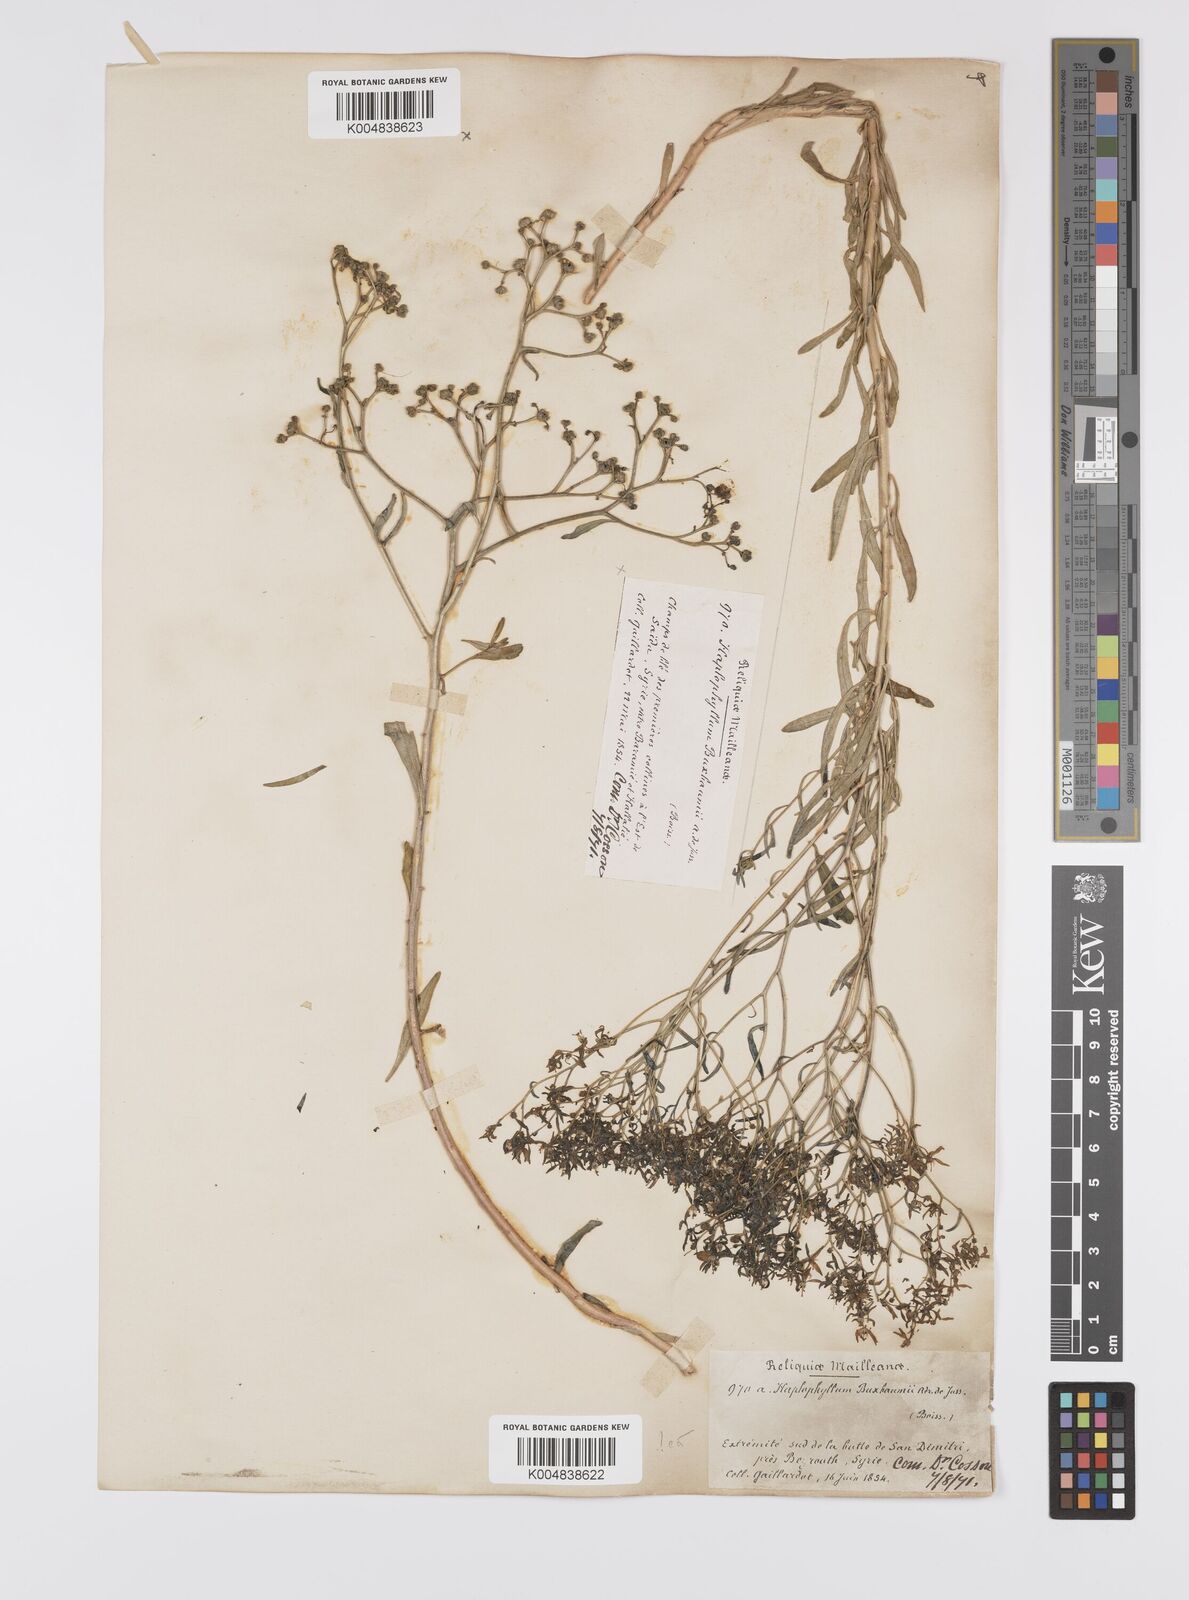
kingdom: Plantae
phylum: Tracheophyta
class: Magnoliopsida
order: Sapindales
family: Rutaceae
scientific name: Rutaceae
